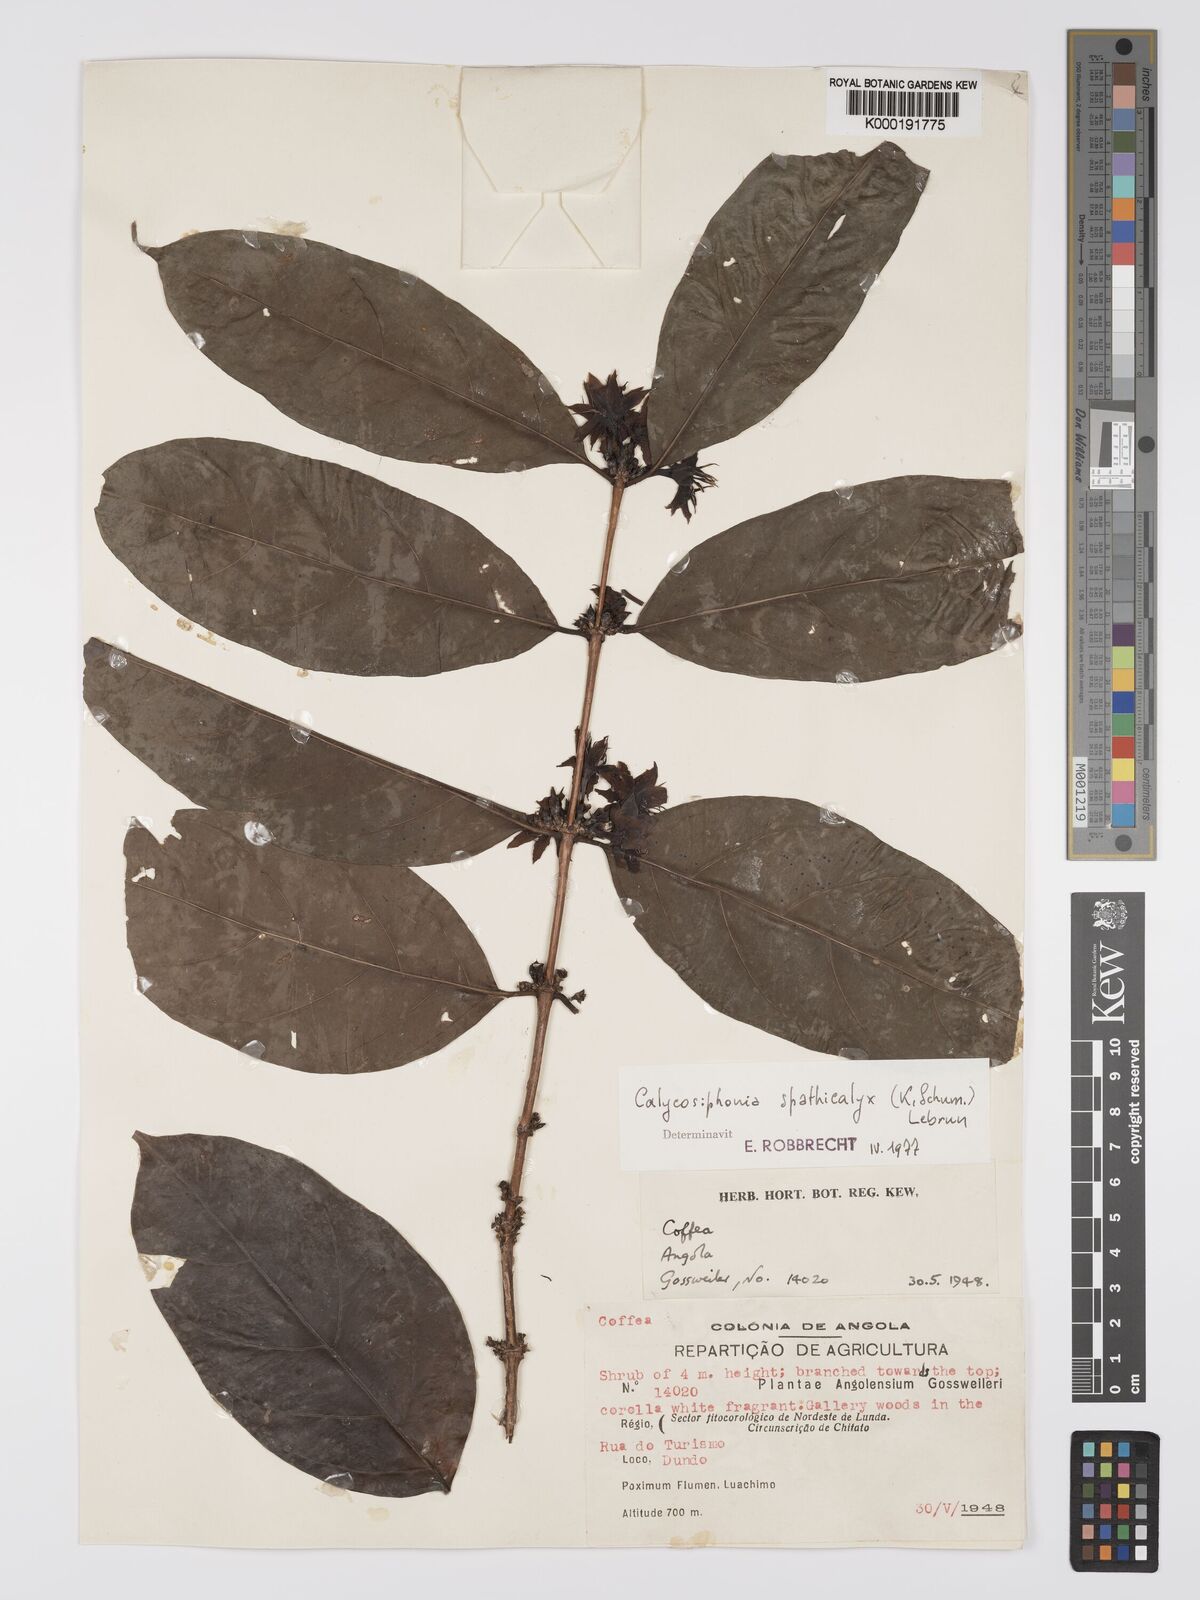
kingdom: Plantae
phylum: Tracheophyta
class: Magnoliopsida
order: Gentianales
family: Rubiaceae
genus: Calycosiphonia
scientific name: Calycosiphonia
